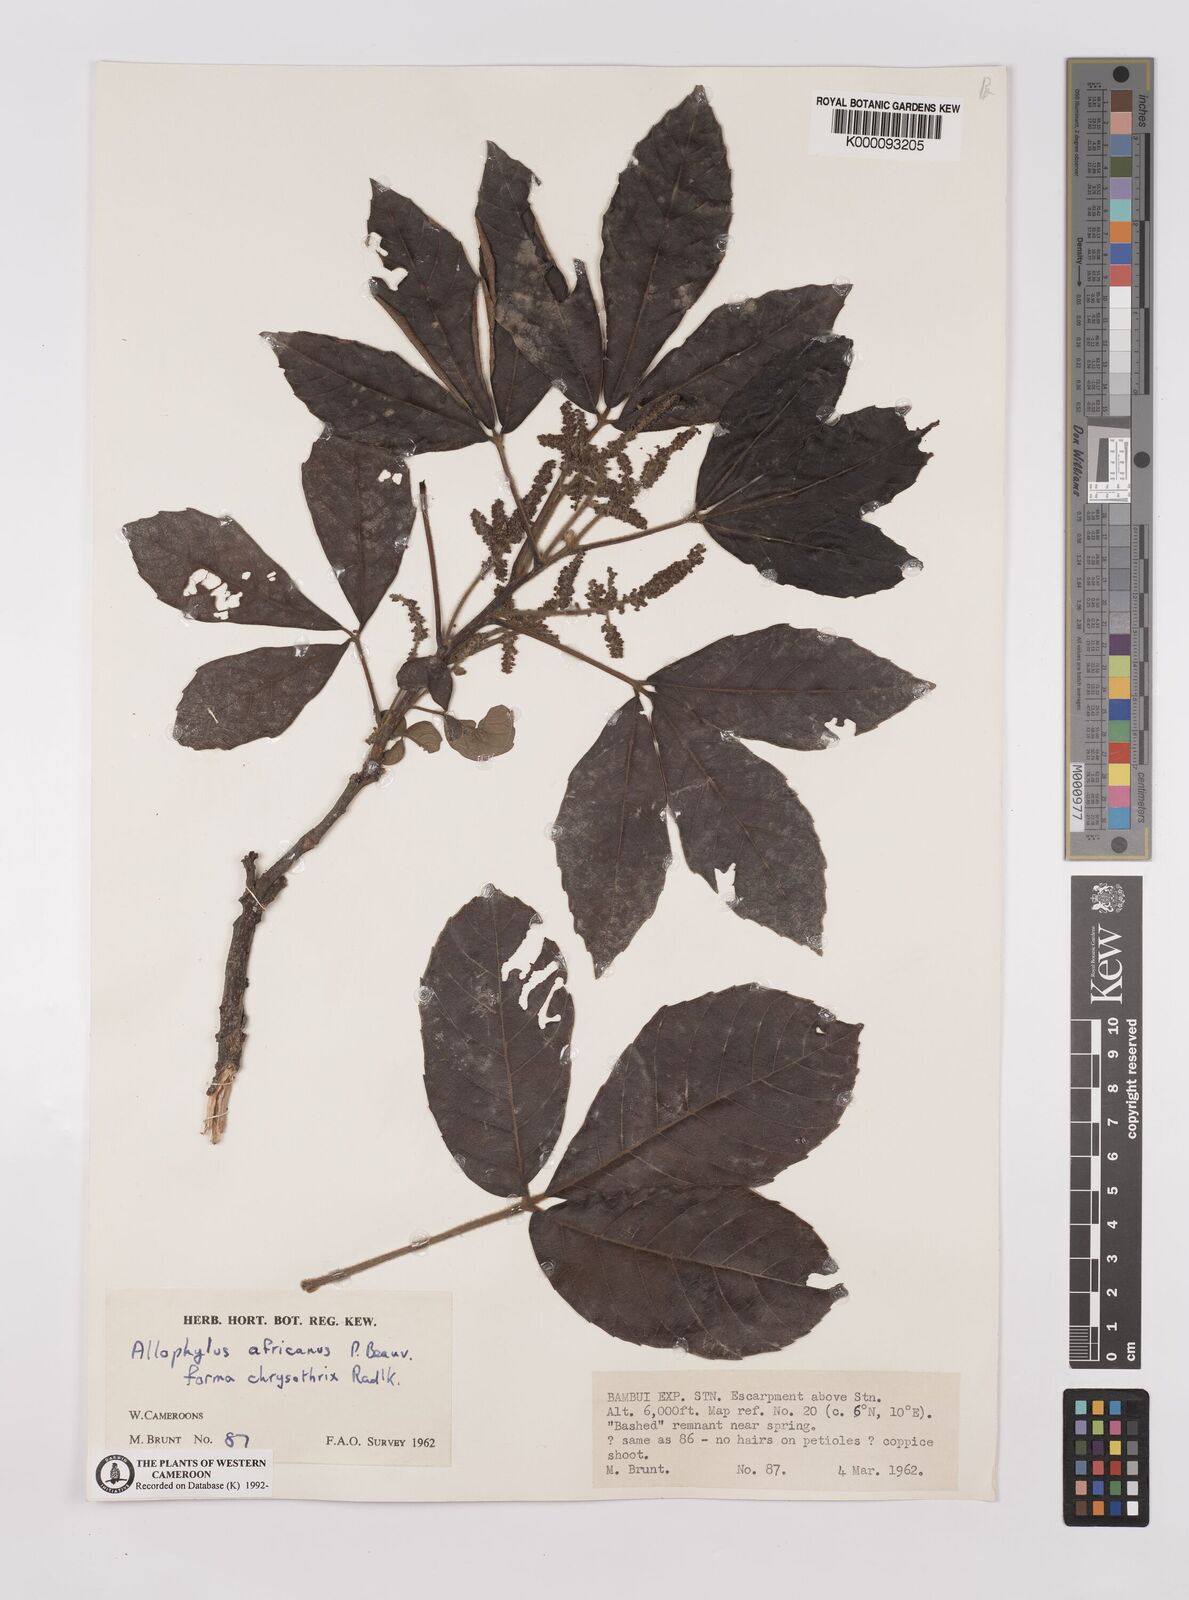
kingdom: Plantae
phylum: Tracheophyta
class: Magnoliopsida
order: Sapindales
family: Sapindaceae
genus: Allophylus
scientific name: Allophylus africanus
